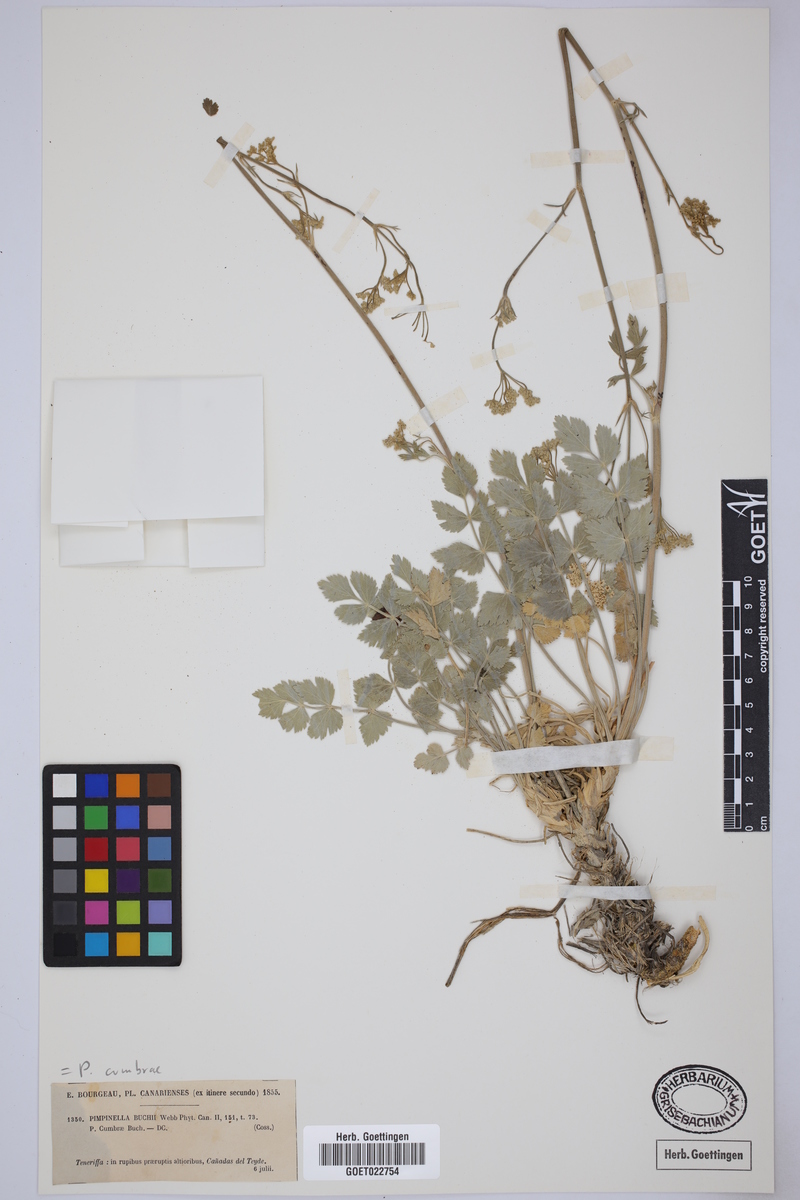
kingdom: Plantae
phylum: Tracheophyta
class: Magnoliopsida
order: Apiales
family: Apiaceae
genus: Pimpinella
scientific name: Pimpinella cumbrae
